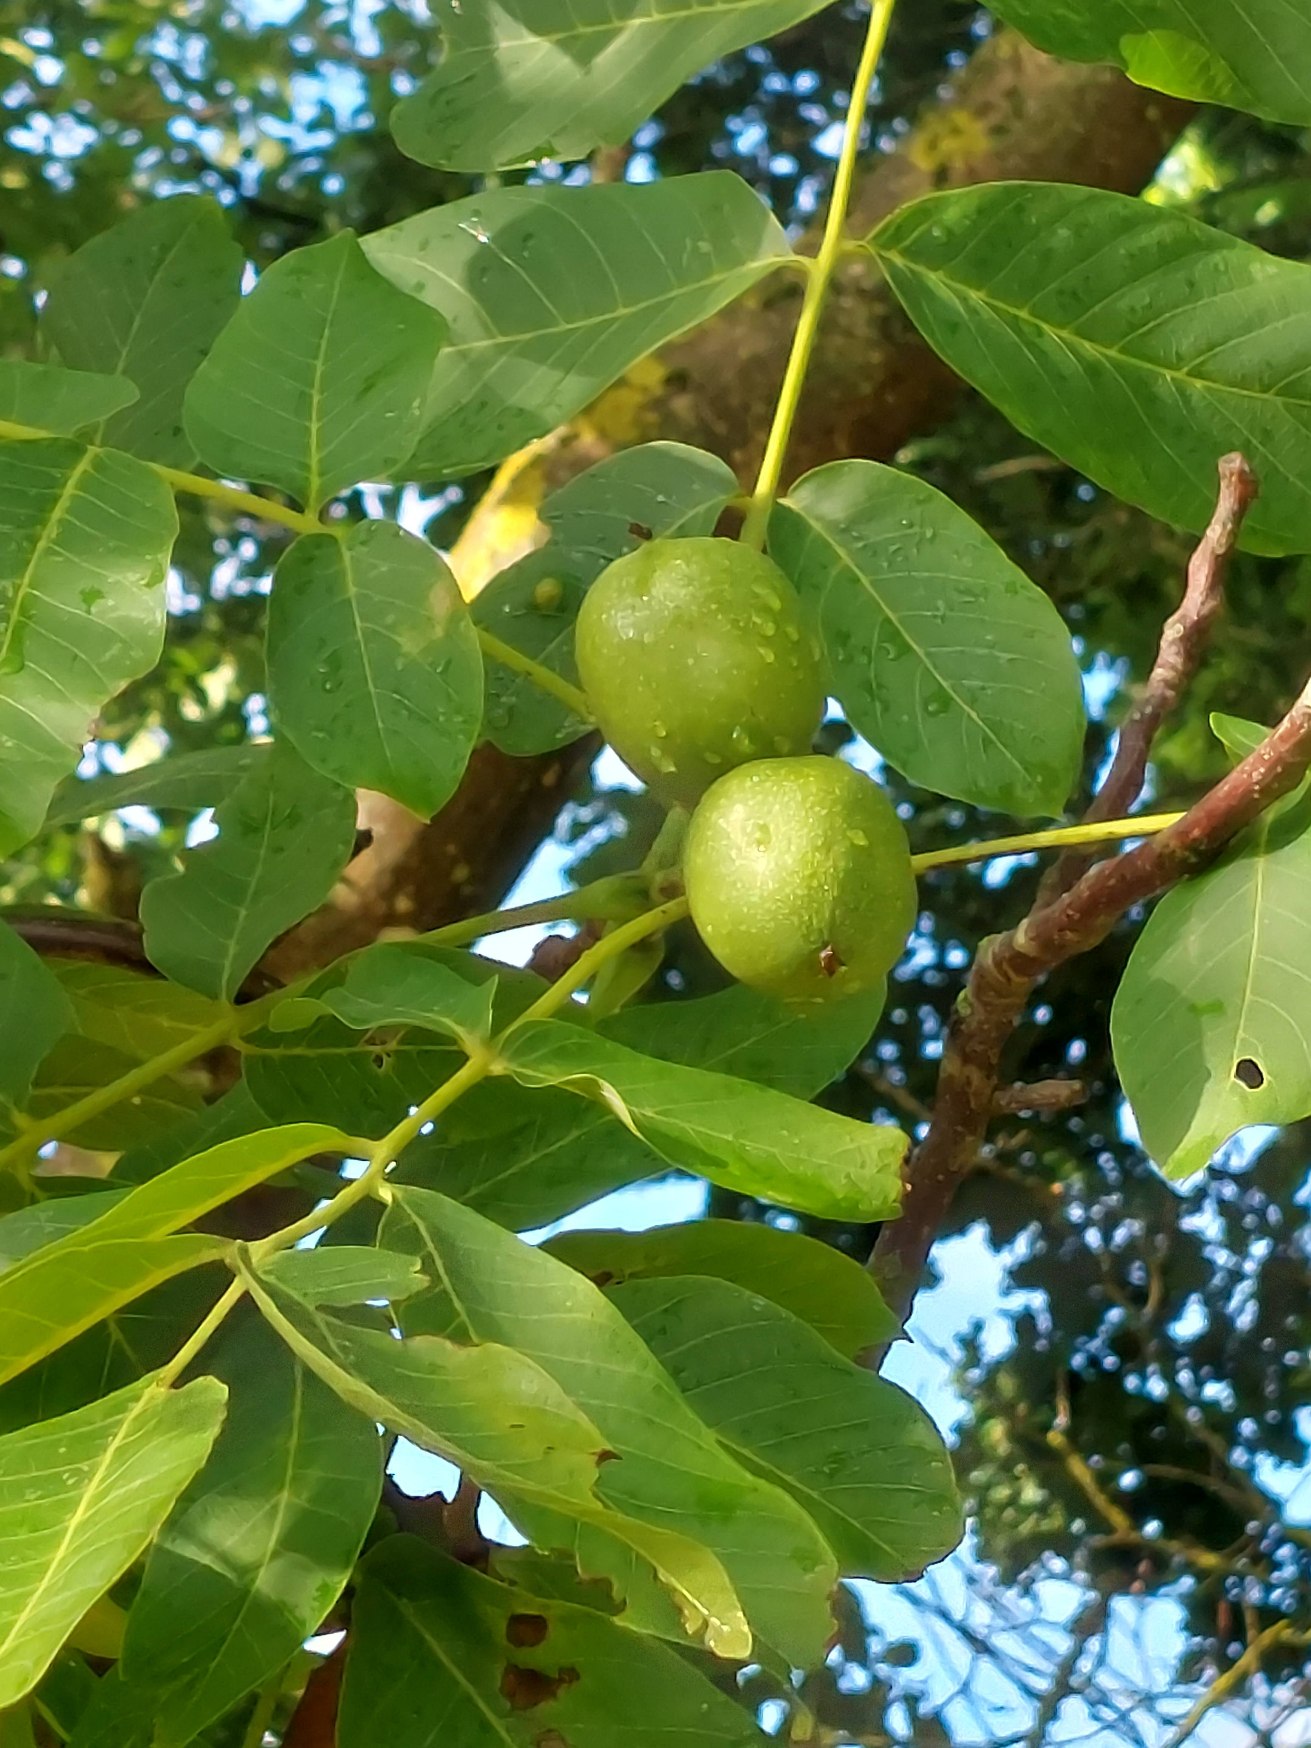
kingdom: Plantae
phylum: Tracheophyta
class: Magnoliopsida
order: Fagales
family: Juglandaceae
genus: Juglans
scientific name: Juglans regia
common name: Almindelig valnød
